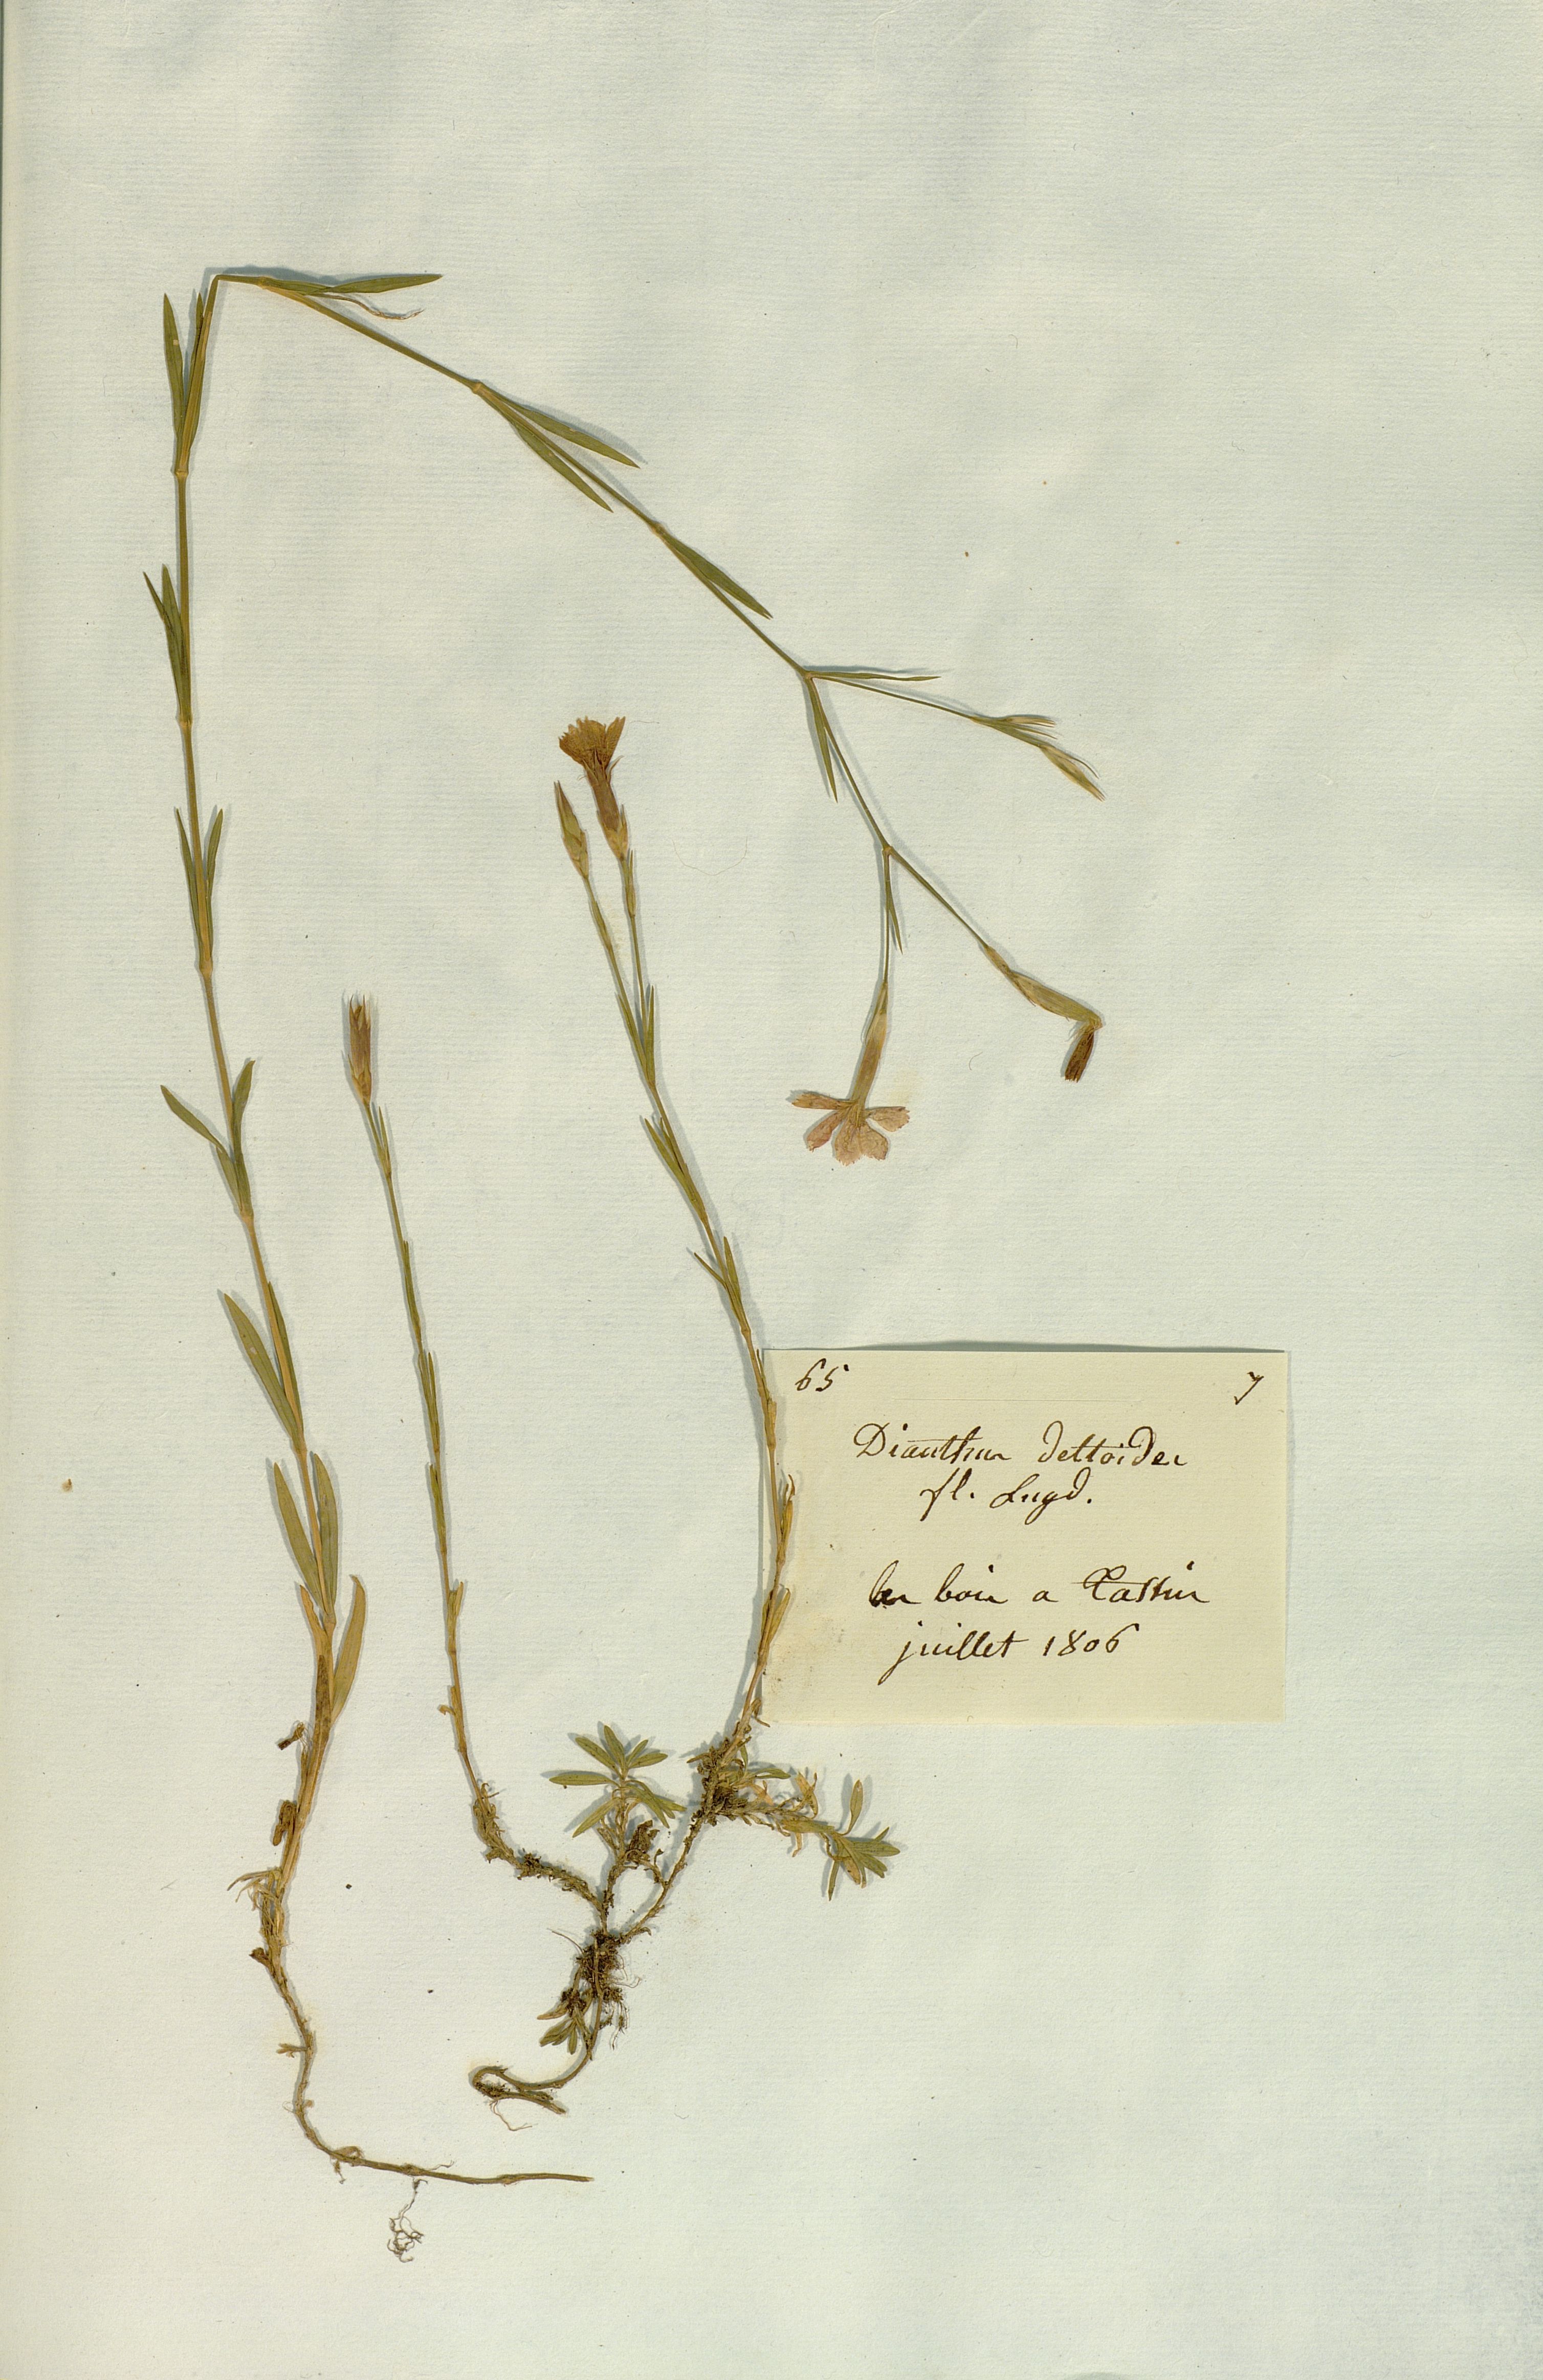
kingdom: Plantae
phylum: Tracheophyta
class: Magnoliopsida
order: Caryophyllales
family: Caryophyllaceae
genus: Dianthus
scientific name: Dianthus deltoides
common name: Maiden pink
